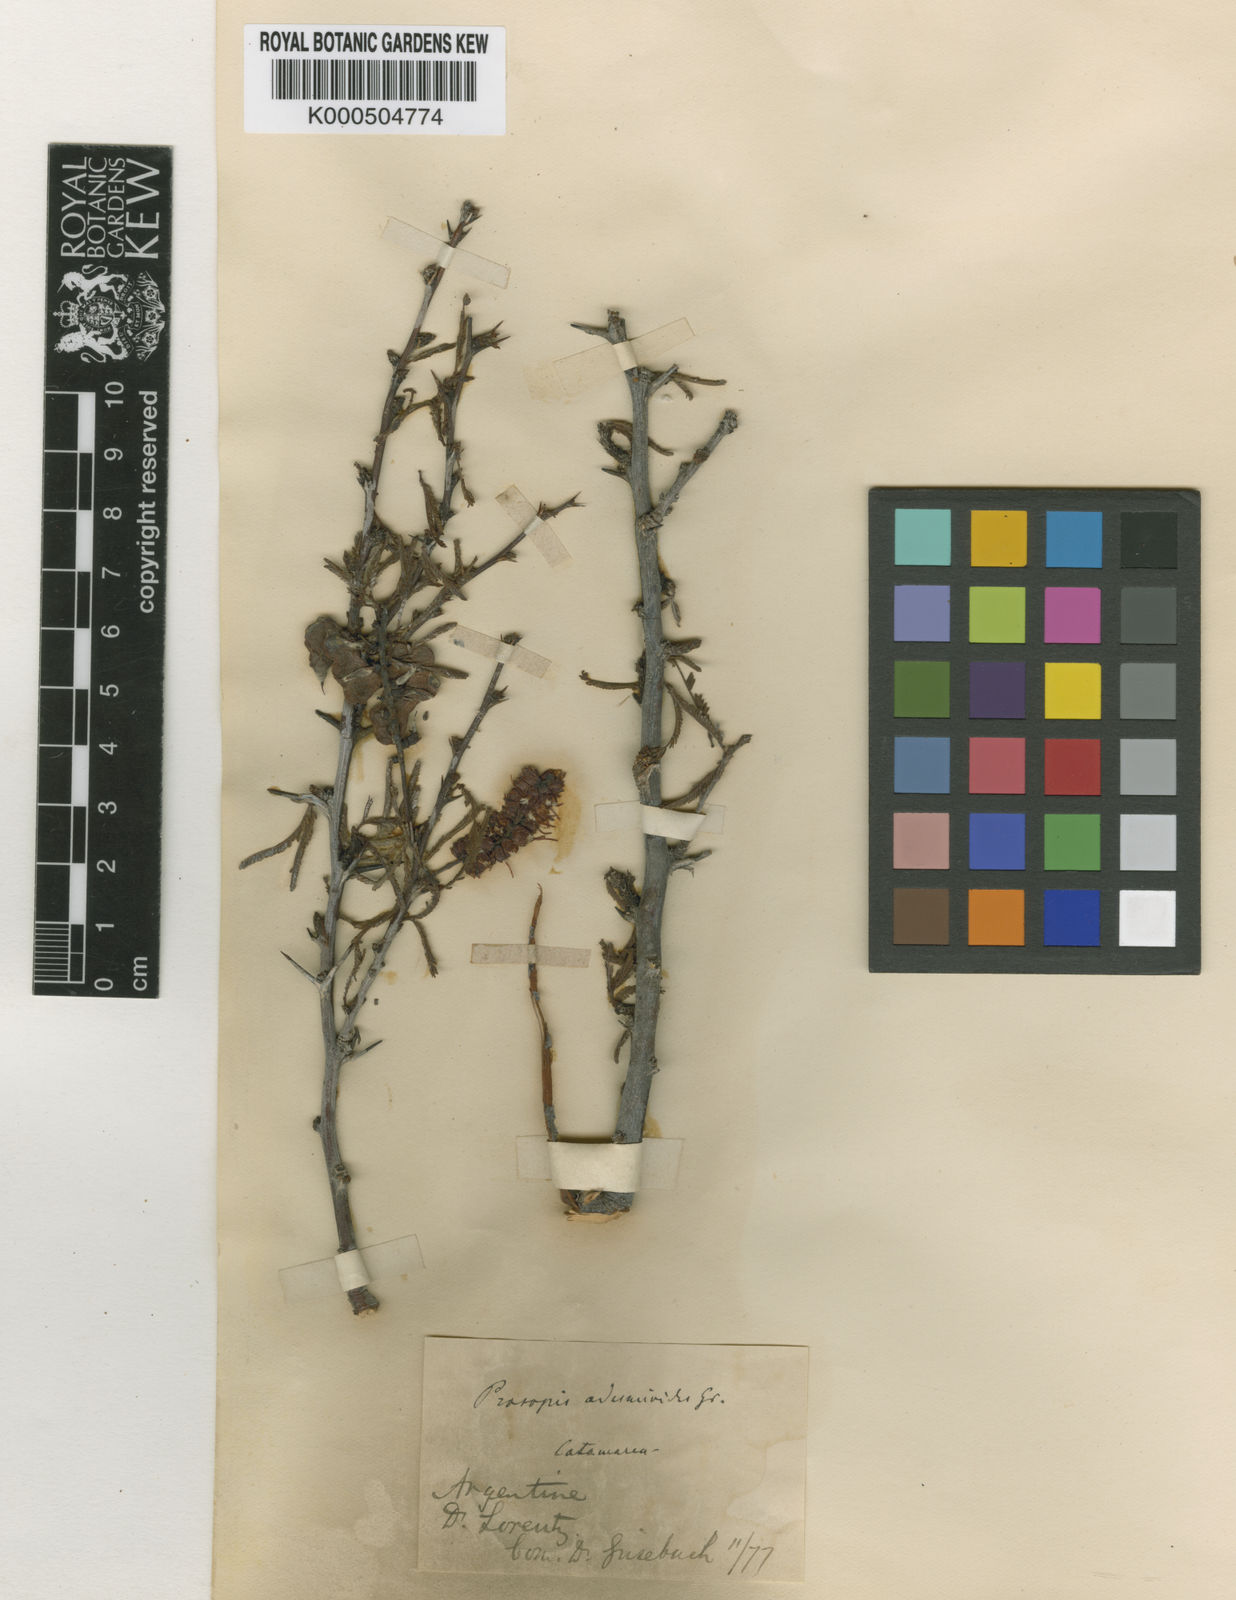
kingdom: Plantae
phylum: Tracheophyta
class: Magnoliopsida
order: Fabales
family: Fabaceae
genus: Prosopis
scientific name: Prosopis torquata
